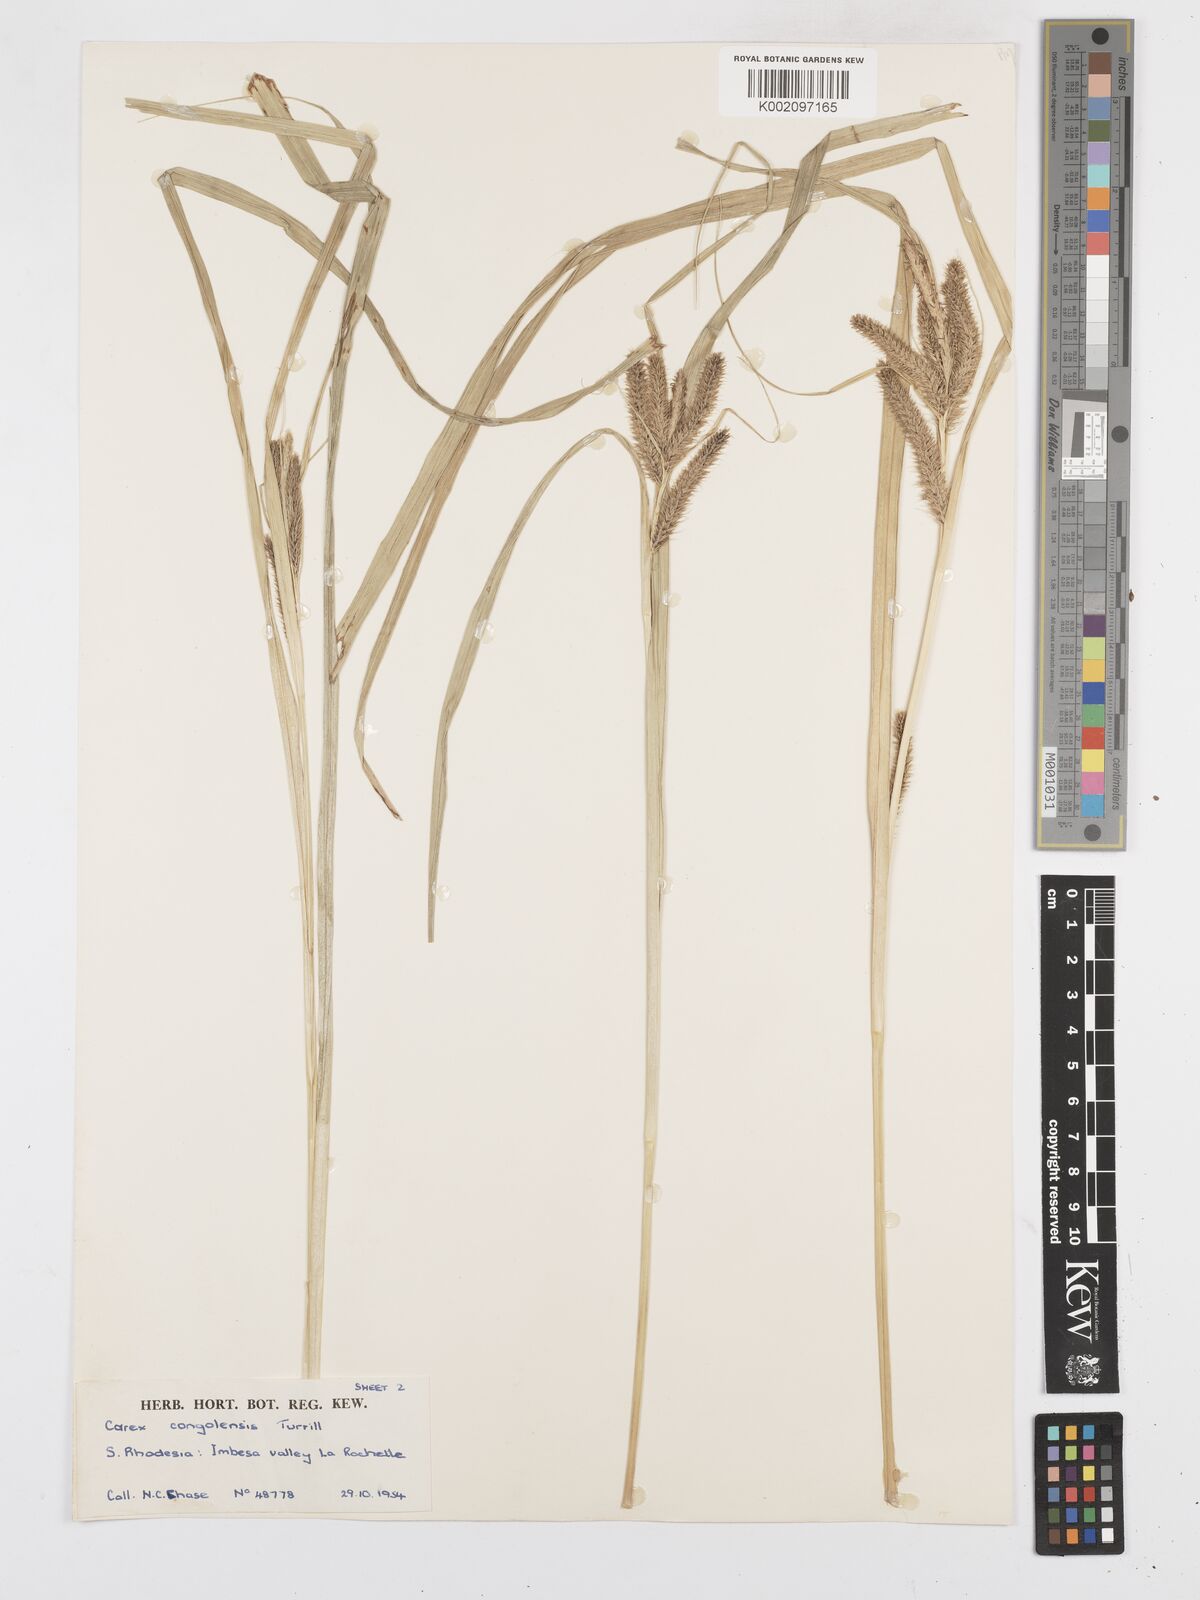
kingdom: Plantae
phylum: Tracheophyta
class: Liliopsida
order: Poales
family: Cyperaceae
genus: Carex
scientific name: Carex congolensis
